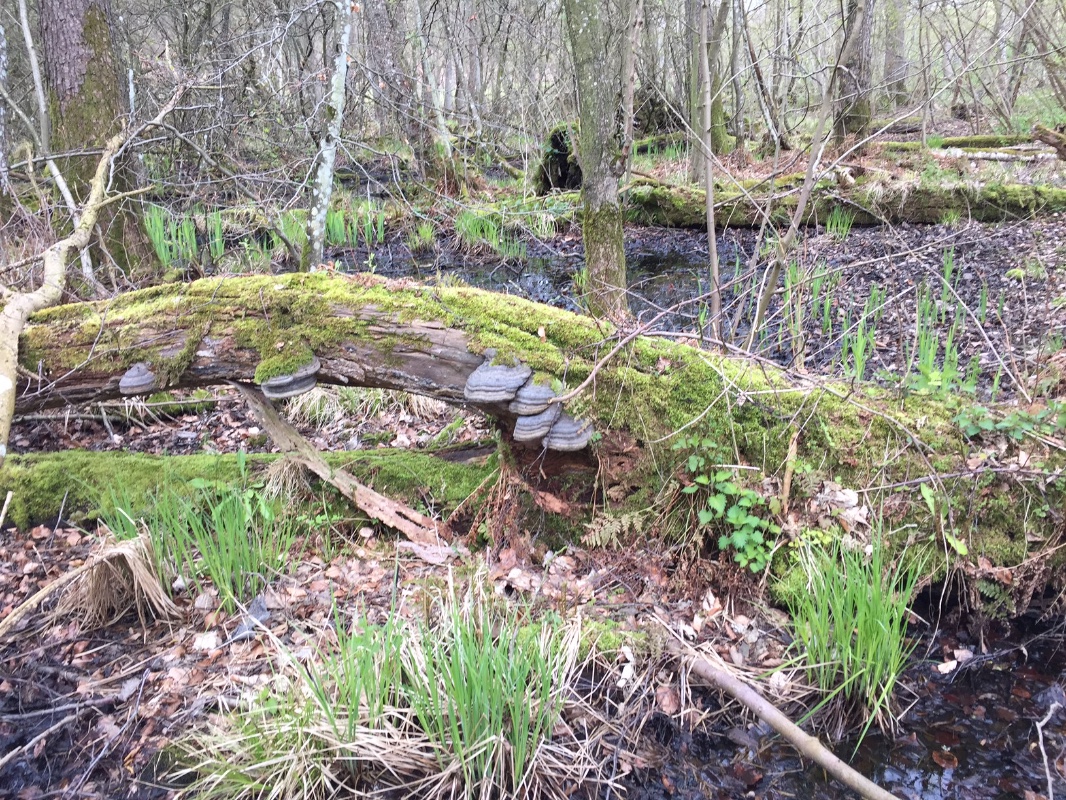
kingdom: Fungi
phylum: Basidiomycota
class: Agaricomycetes
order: Polyporales
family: Polyporaceae
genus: Fomes
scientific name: Fomes fomentarius
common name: tøndersvamp
